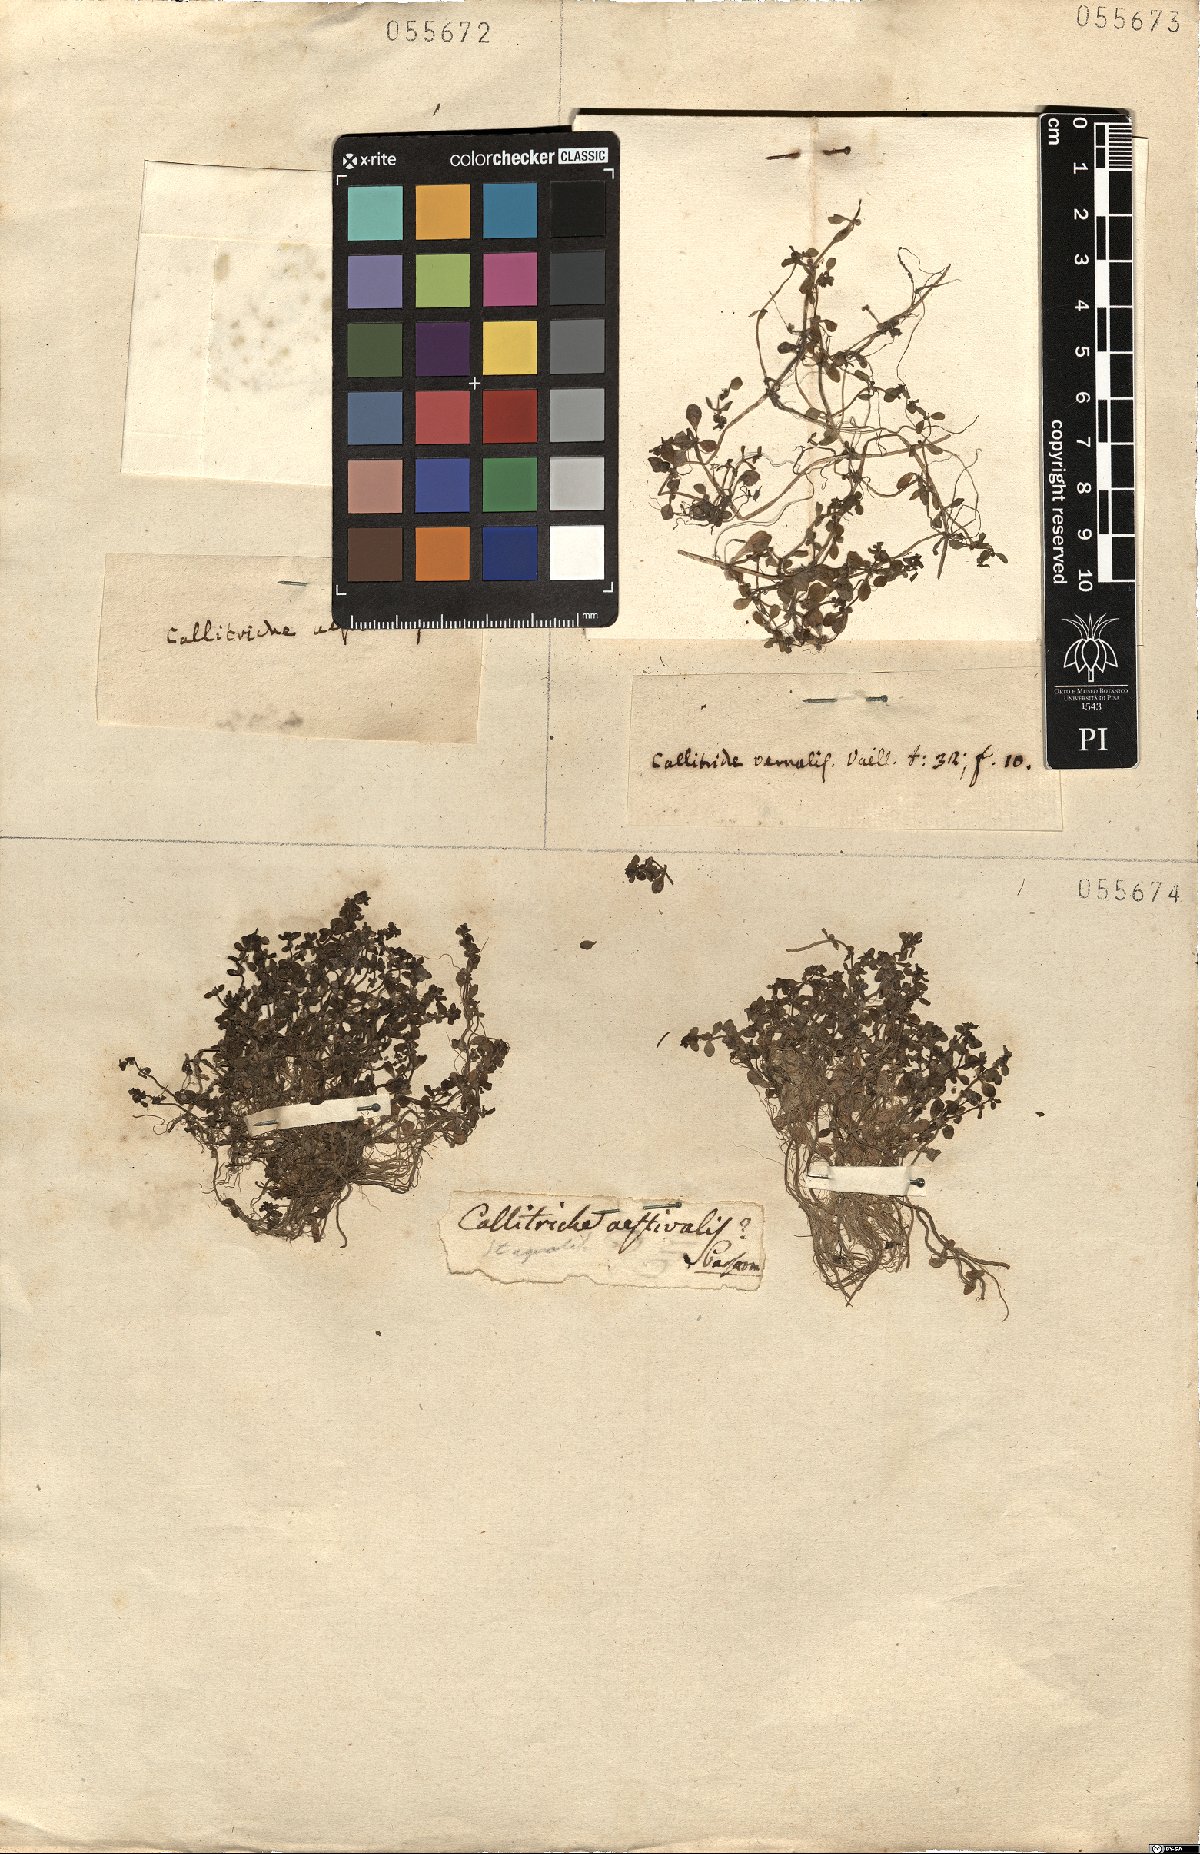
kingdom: Plantae
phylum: Tracheophyta
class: Magnoliopsida
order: Lamiales
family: Plantaginaceae
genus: Callitriche
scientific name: Callitriche palustris
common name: Spring water-starwort
